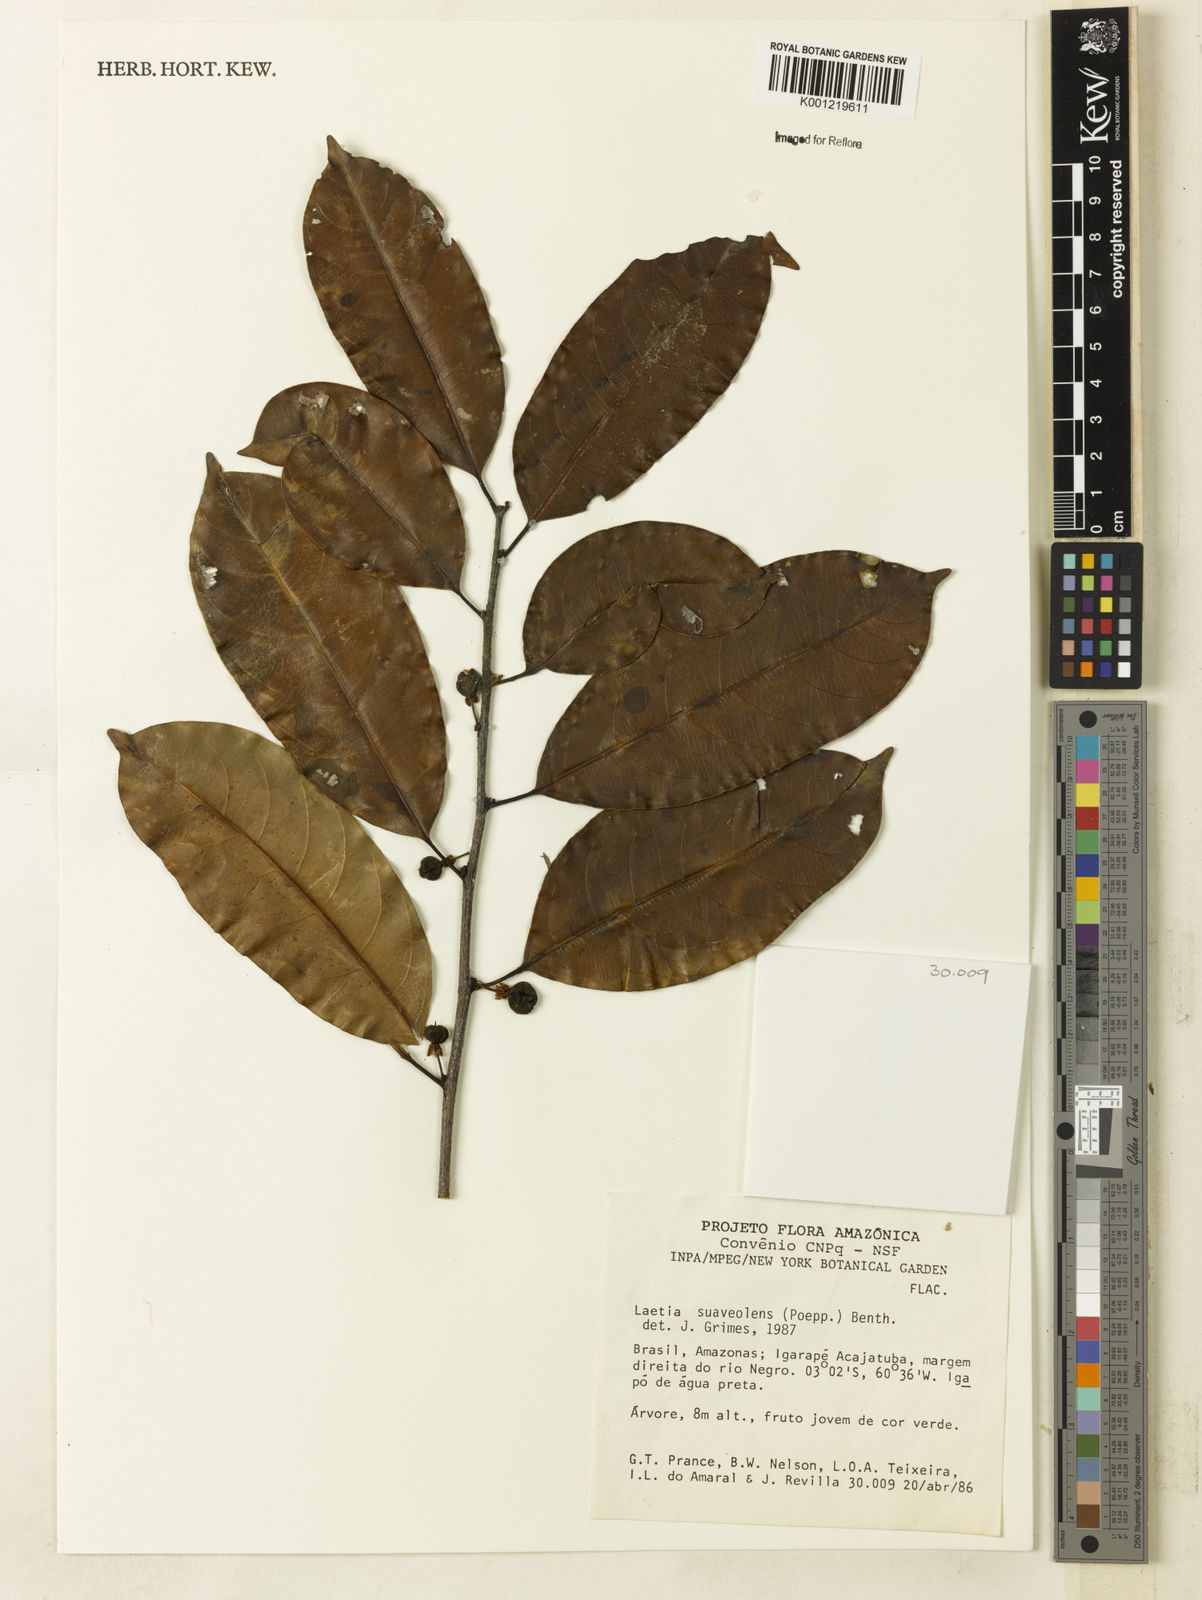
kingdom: Plantae
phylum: Tracheophyta
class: Magnoliopsida
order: Malpighiales
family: Salicaceae
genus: Casearia
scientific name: Casearia suaveolens
